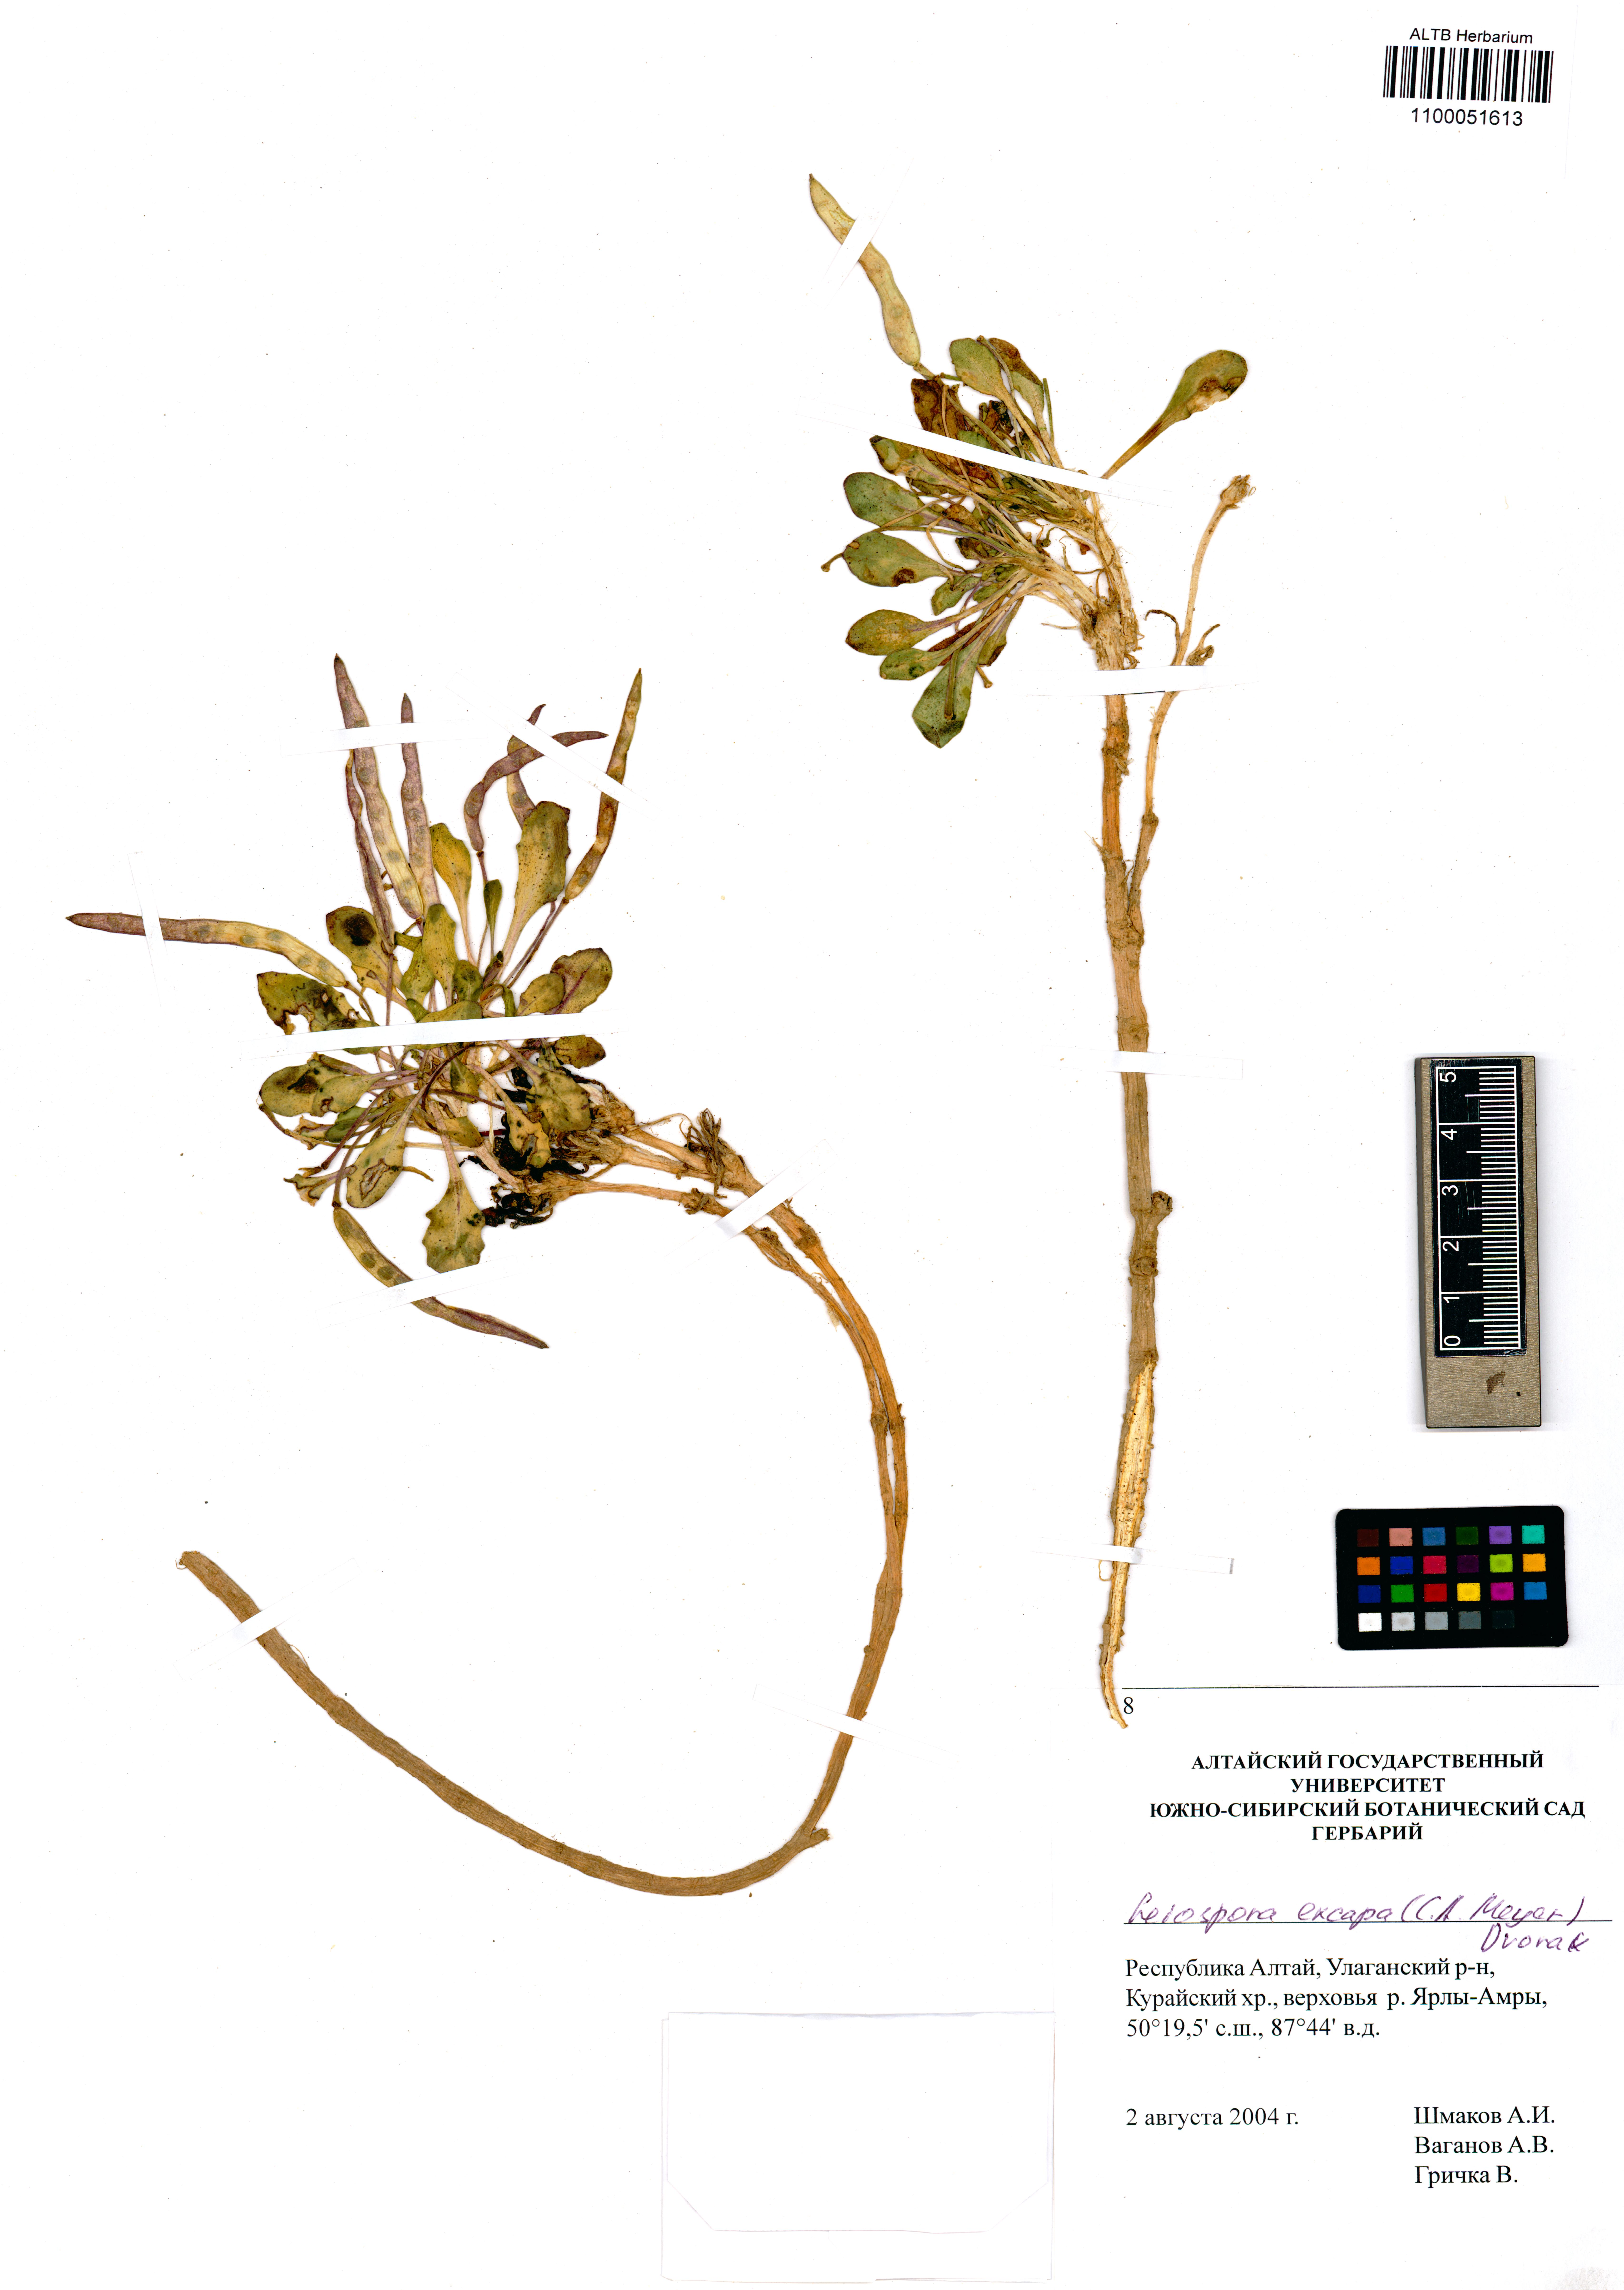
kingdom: Plantae
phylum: Tracheophyta
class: Magnoliopsida
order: Brassicales
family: Brassicaceae
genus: Leiospora
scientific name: Leiospora exscapa
